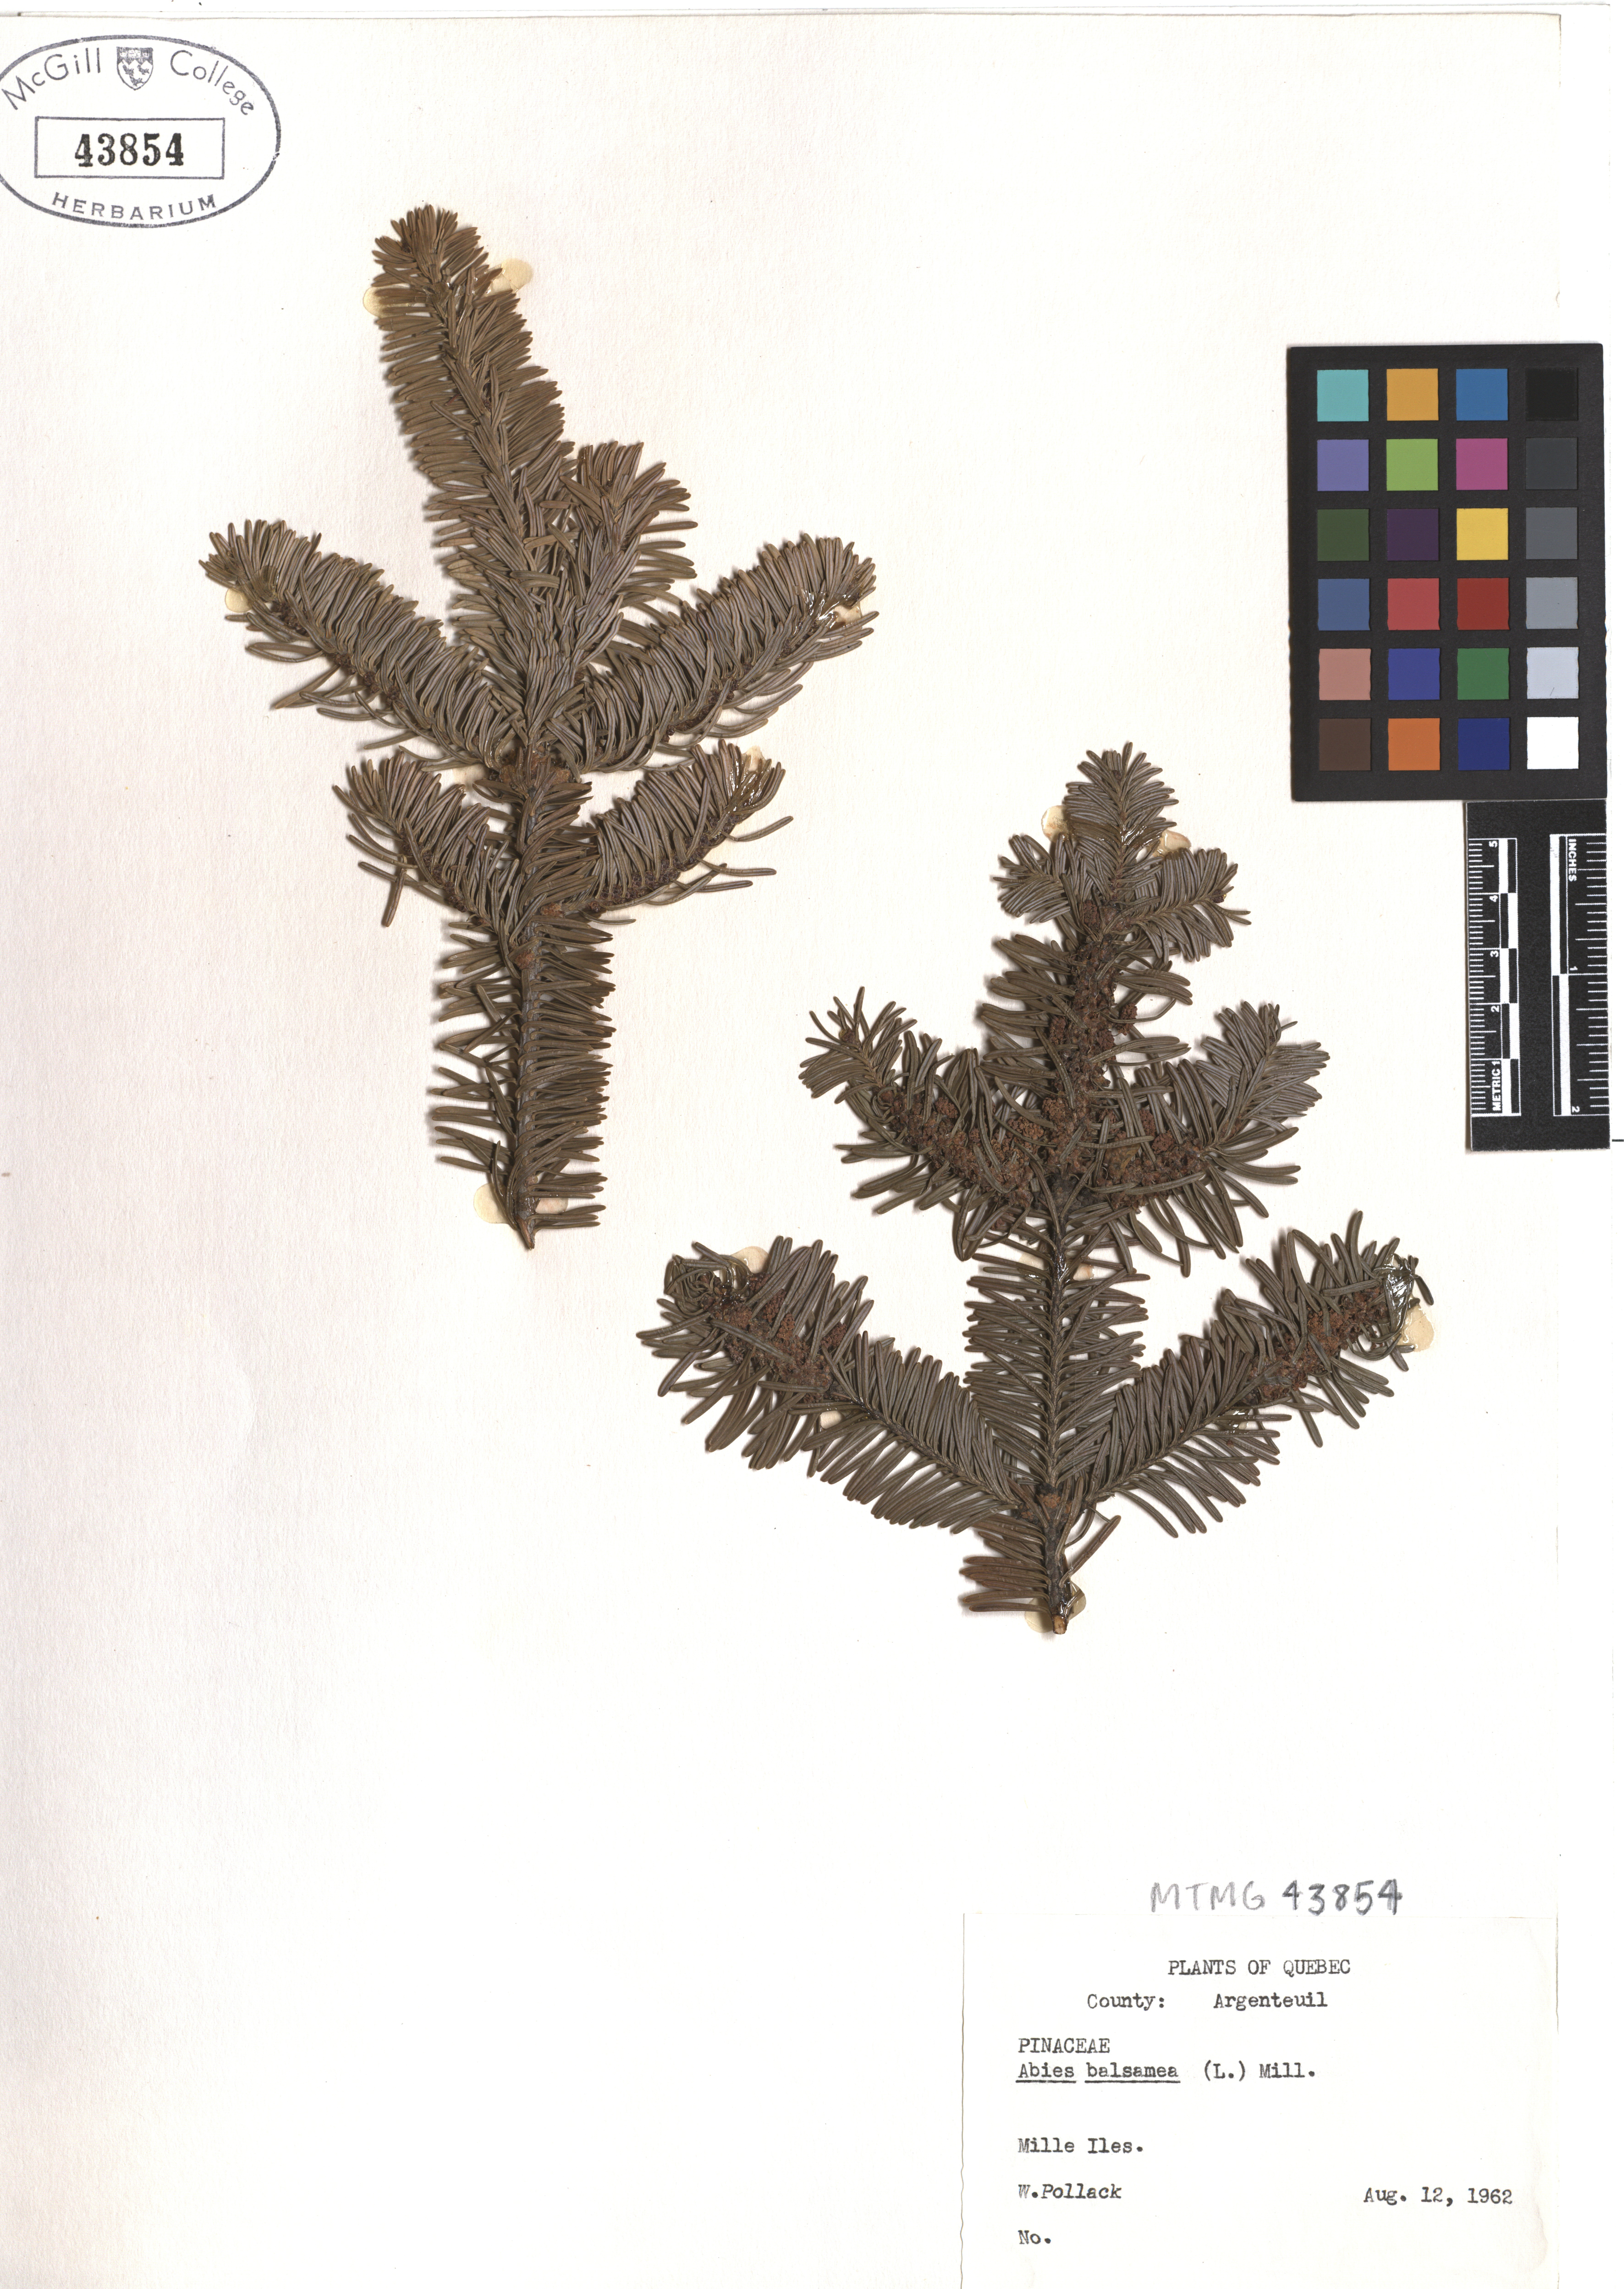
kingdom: Plantae
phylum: Tracheophyta
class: Pinopsida
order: Pinales
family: Pinaceae
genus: Abies
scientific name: Abies balsamea
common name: Balsam fir
